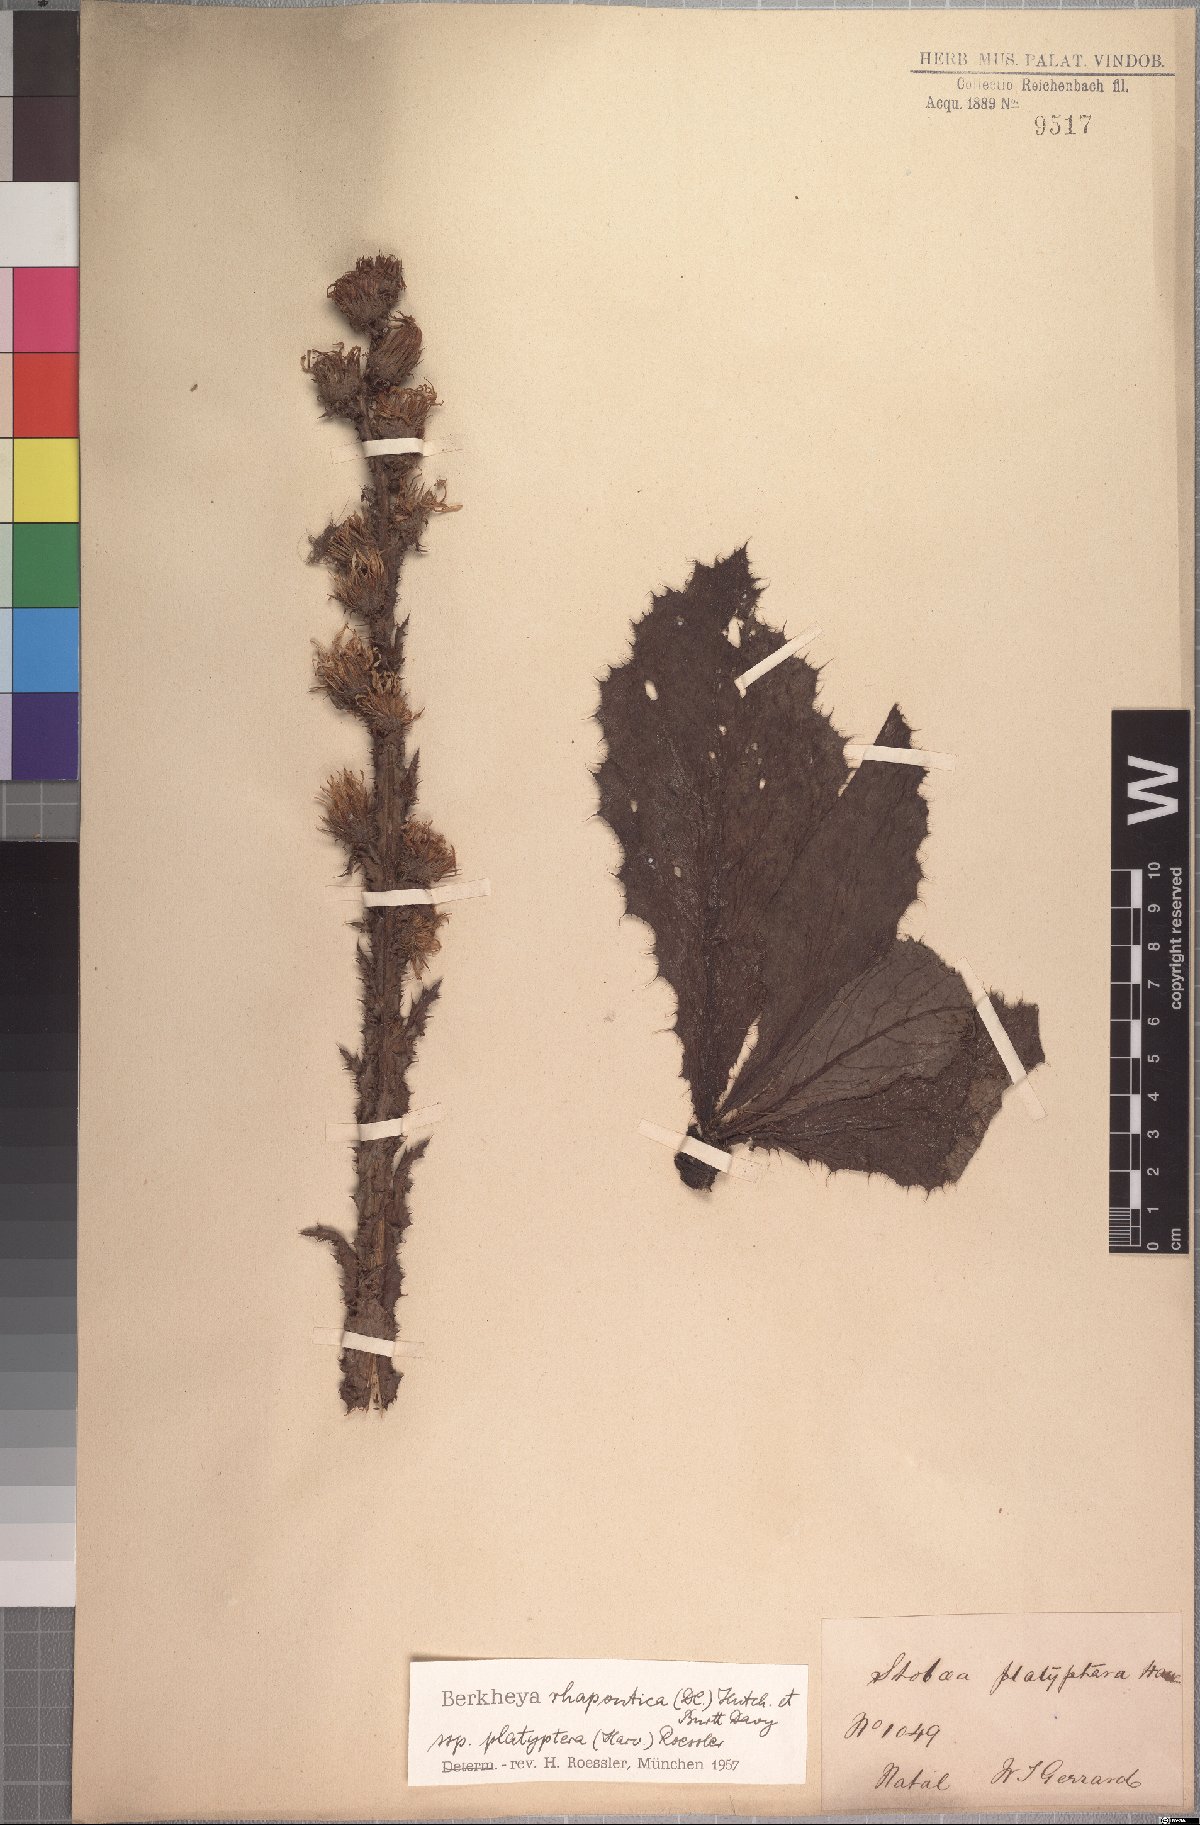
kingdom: Plantae
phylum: Tracheophyta
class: Magnoliopsida
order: Asterales
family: Asteraceae
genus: Berkheya
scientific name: Berkheya rhapontica
